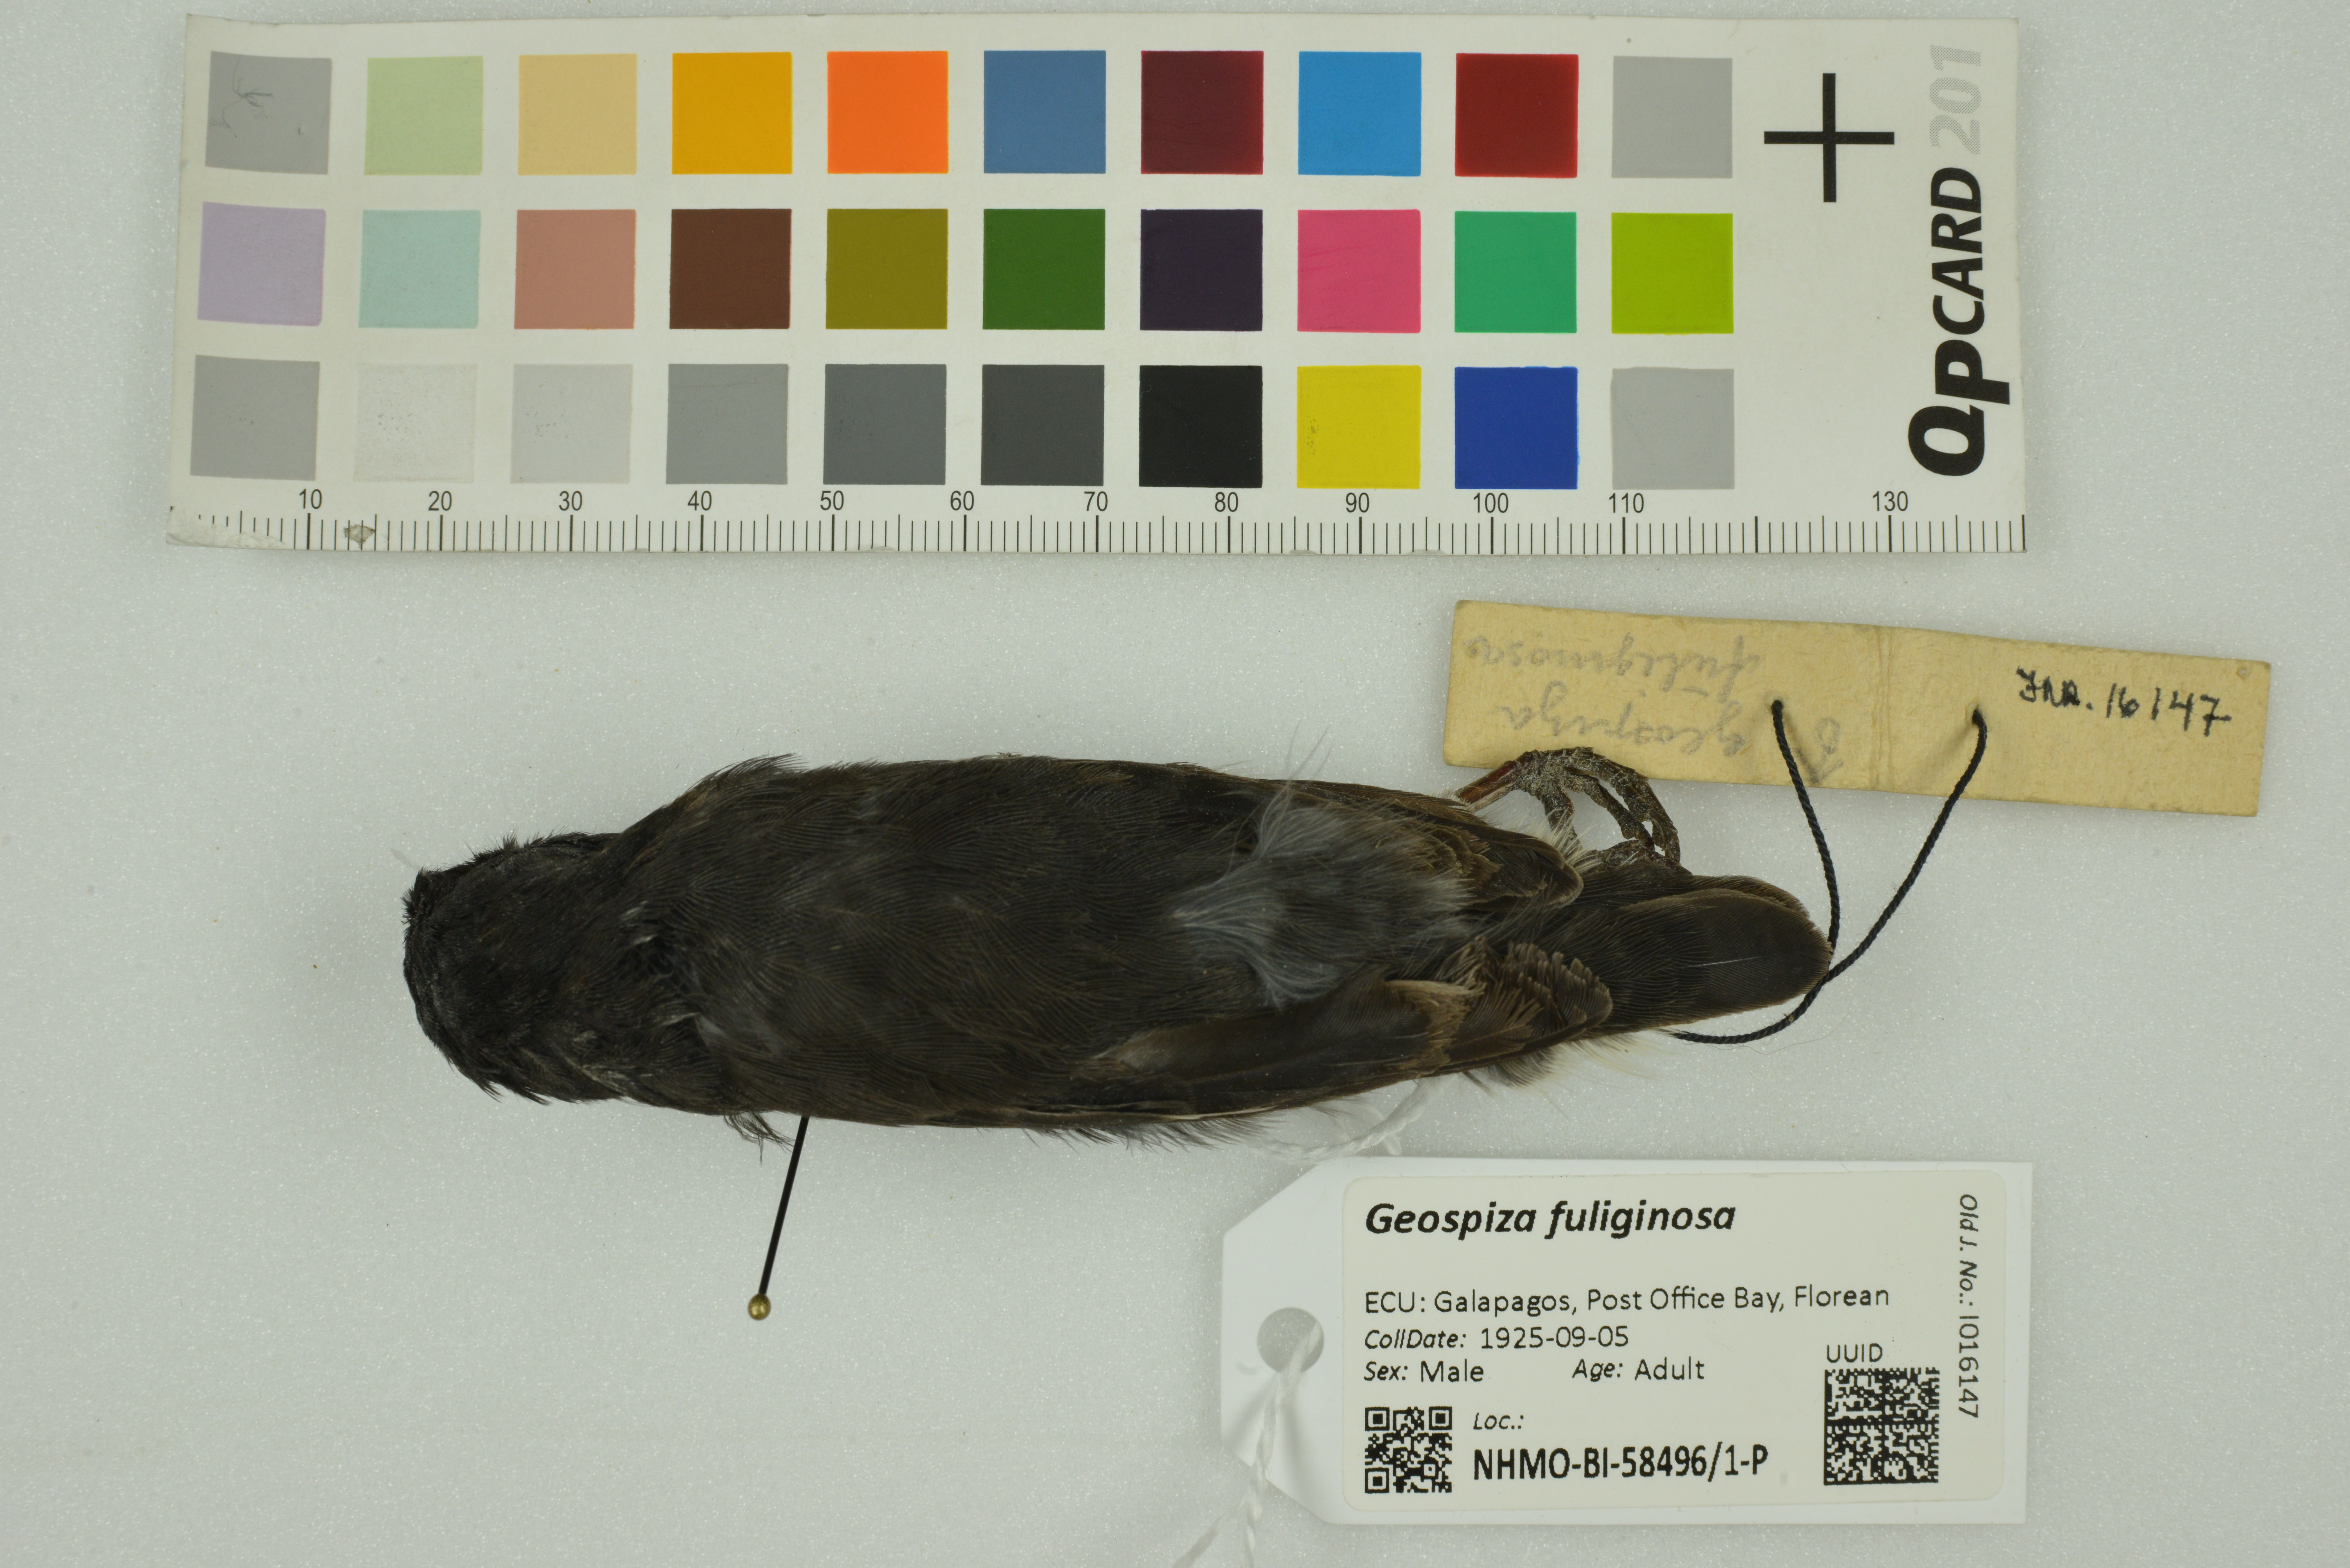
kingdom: Animalia
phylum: Chordata
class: Aves
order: Passeriformes
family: Thraupidae
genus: Geospiza
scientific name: Geospiza fuliginosa
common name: Small ground finch
